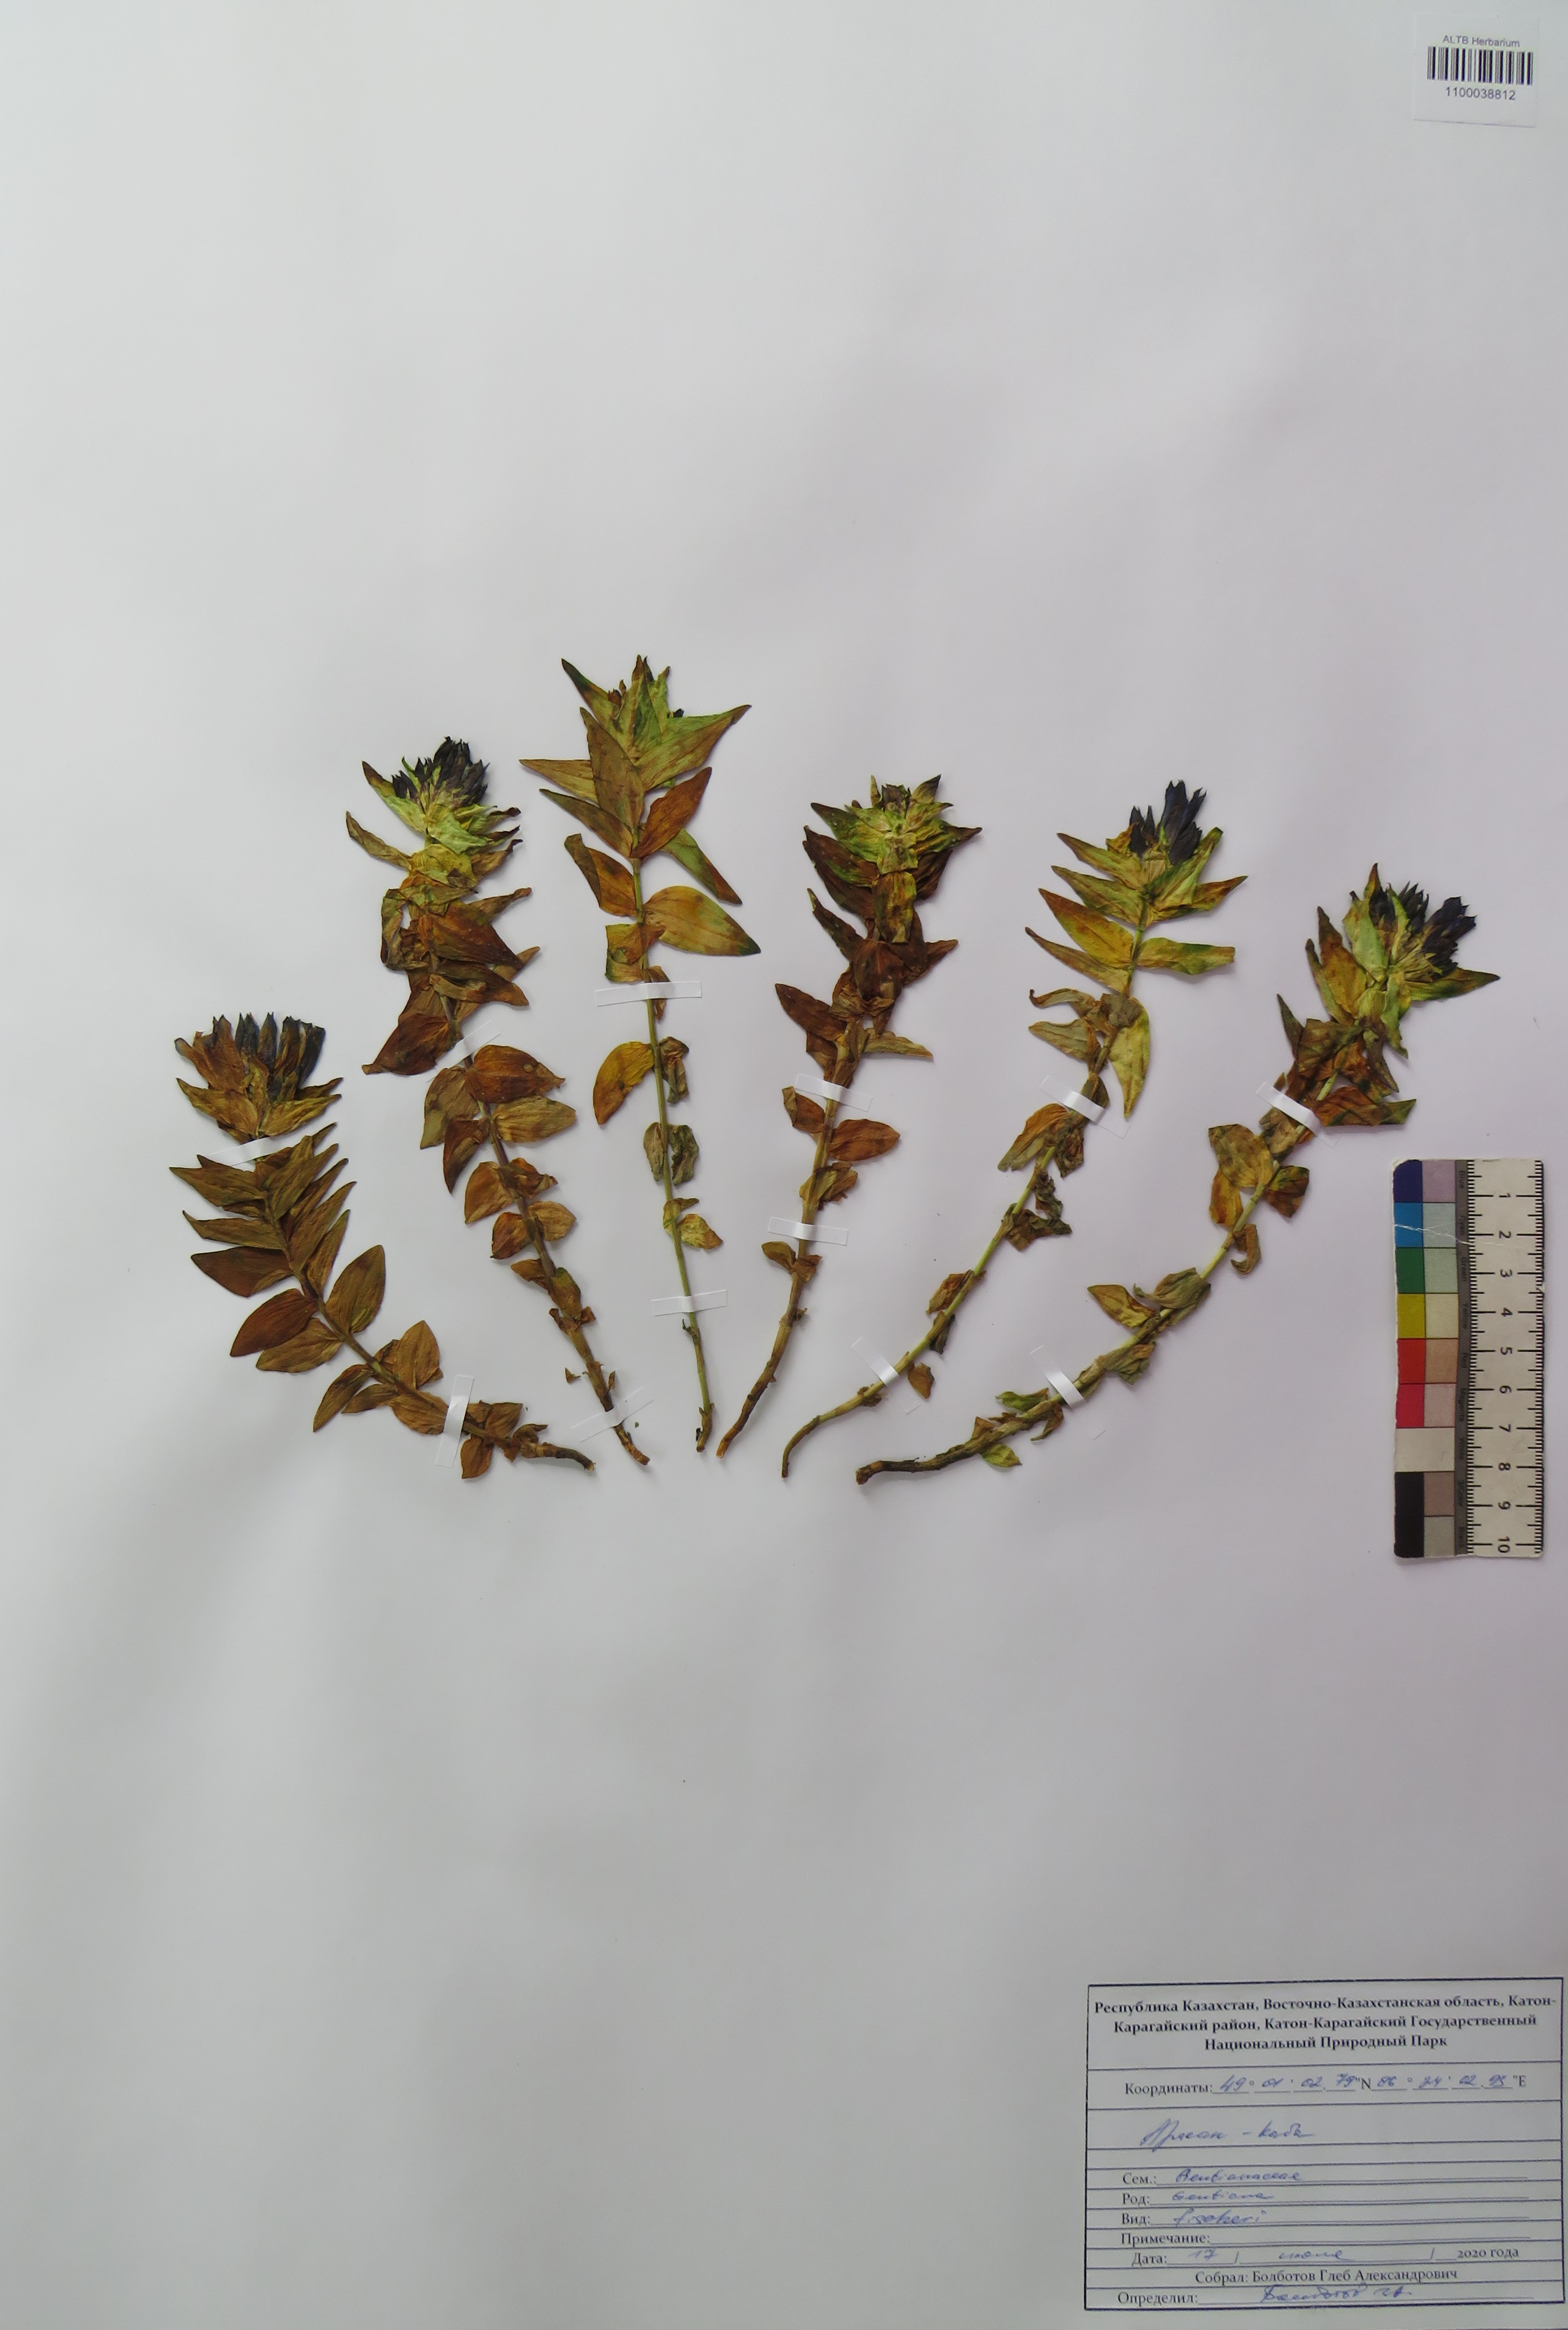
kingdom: Plantae
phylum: Tracheophyta
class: Magnoliopsida
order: Gentianales
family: Gentianaceae
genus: Gentiana
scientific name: Gentiana dschungarica
